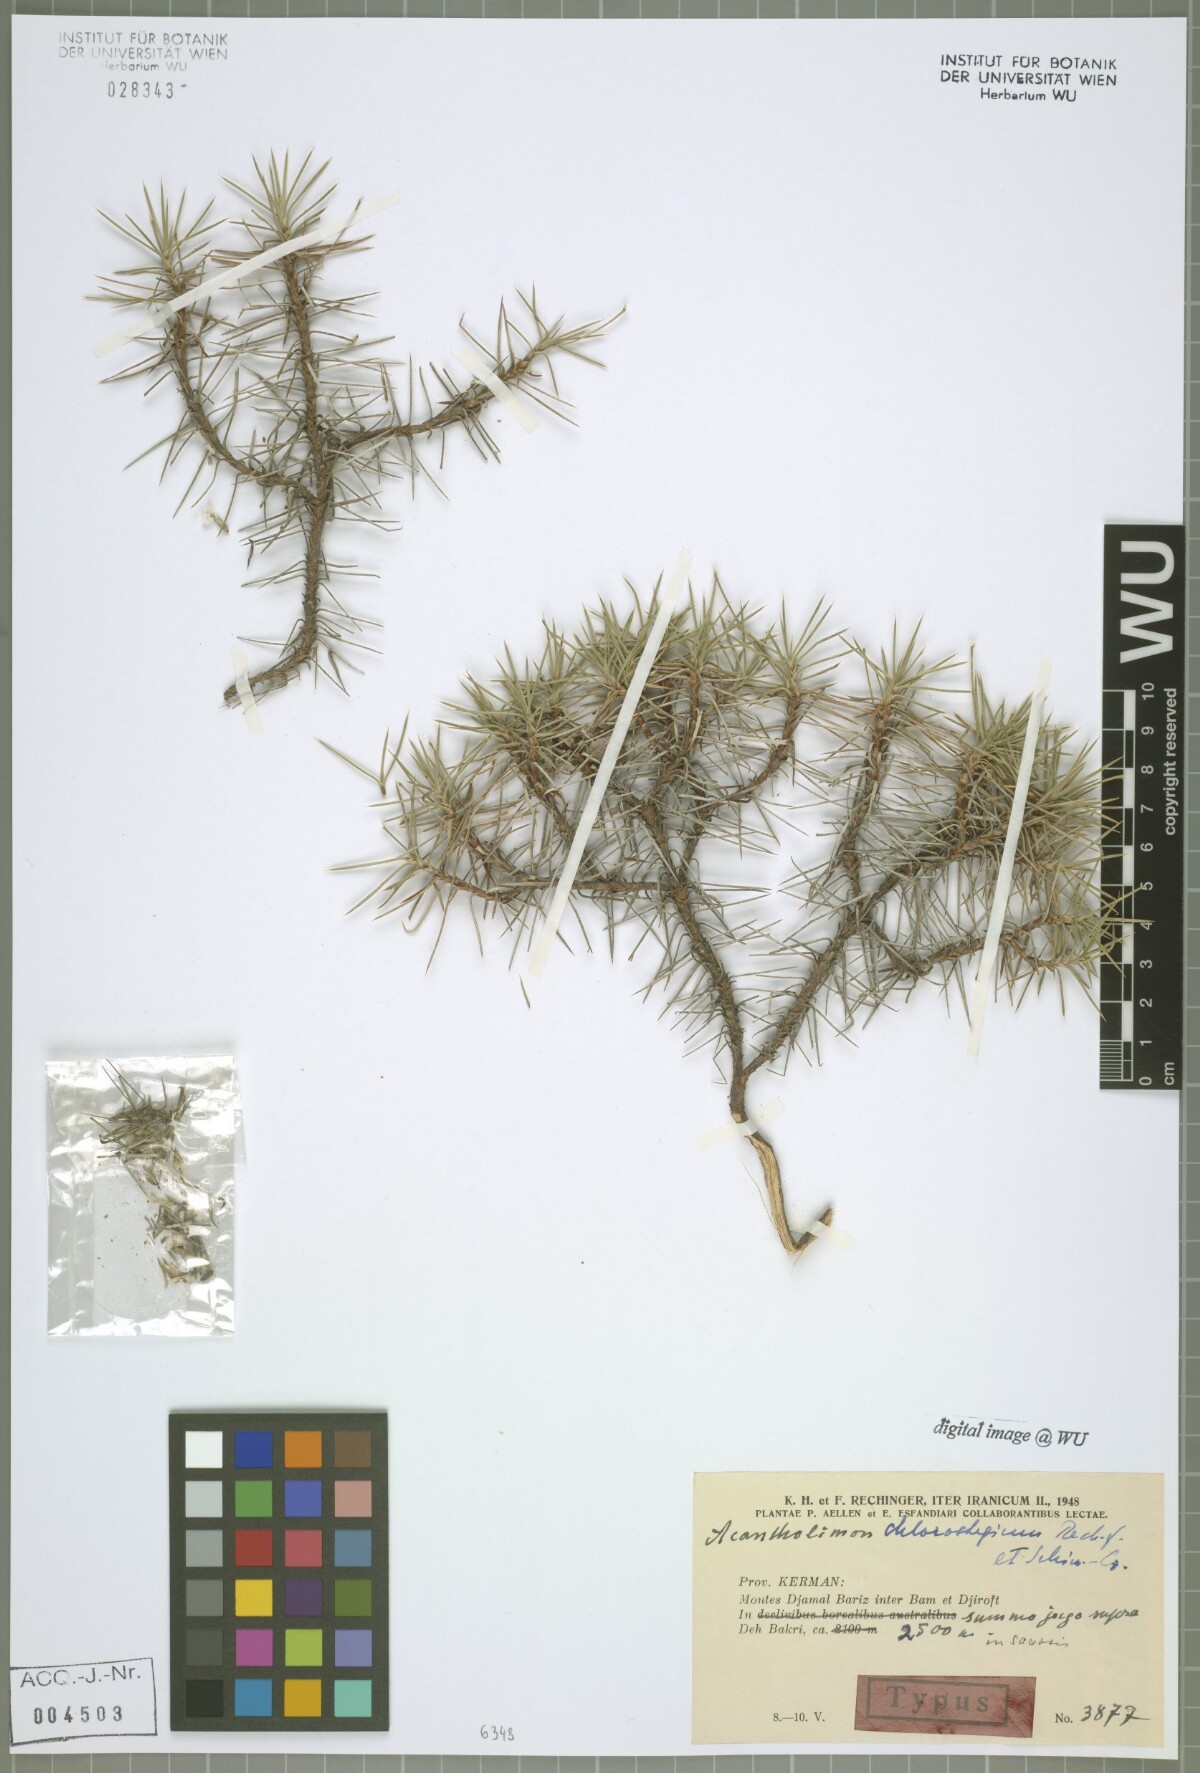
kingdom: Plantae
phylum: Tracheophyta
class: Magnoliopsida
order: Caryophyllales
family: Plumbaginaceae
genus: Acantholimon
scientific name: Acantholimon chlorostegium
